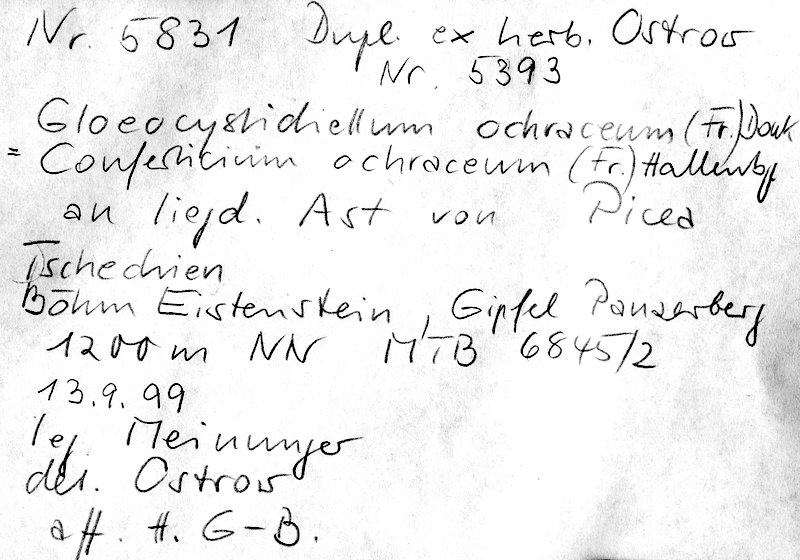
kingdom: Fungi
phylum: Basidiomycota
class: Agaricomycetes
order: Russulales
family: Stereaceae
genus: Conferticium
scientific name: Conferticium ochraceum
